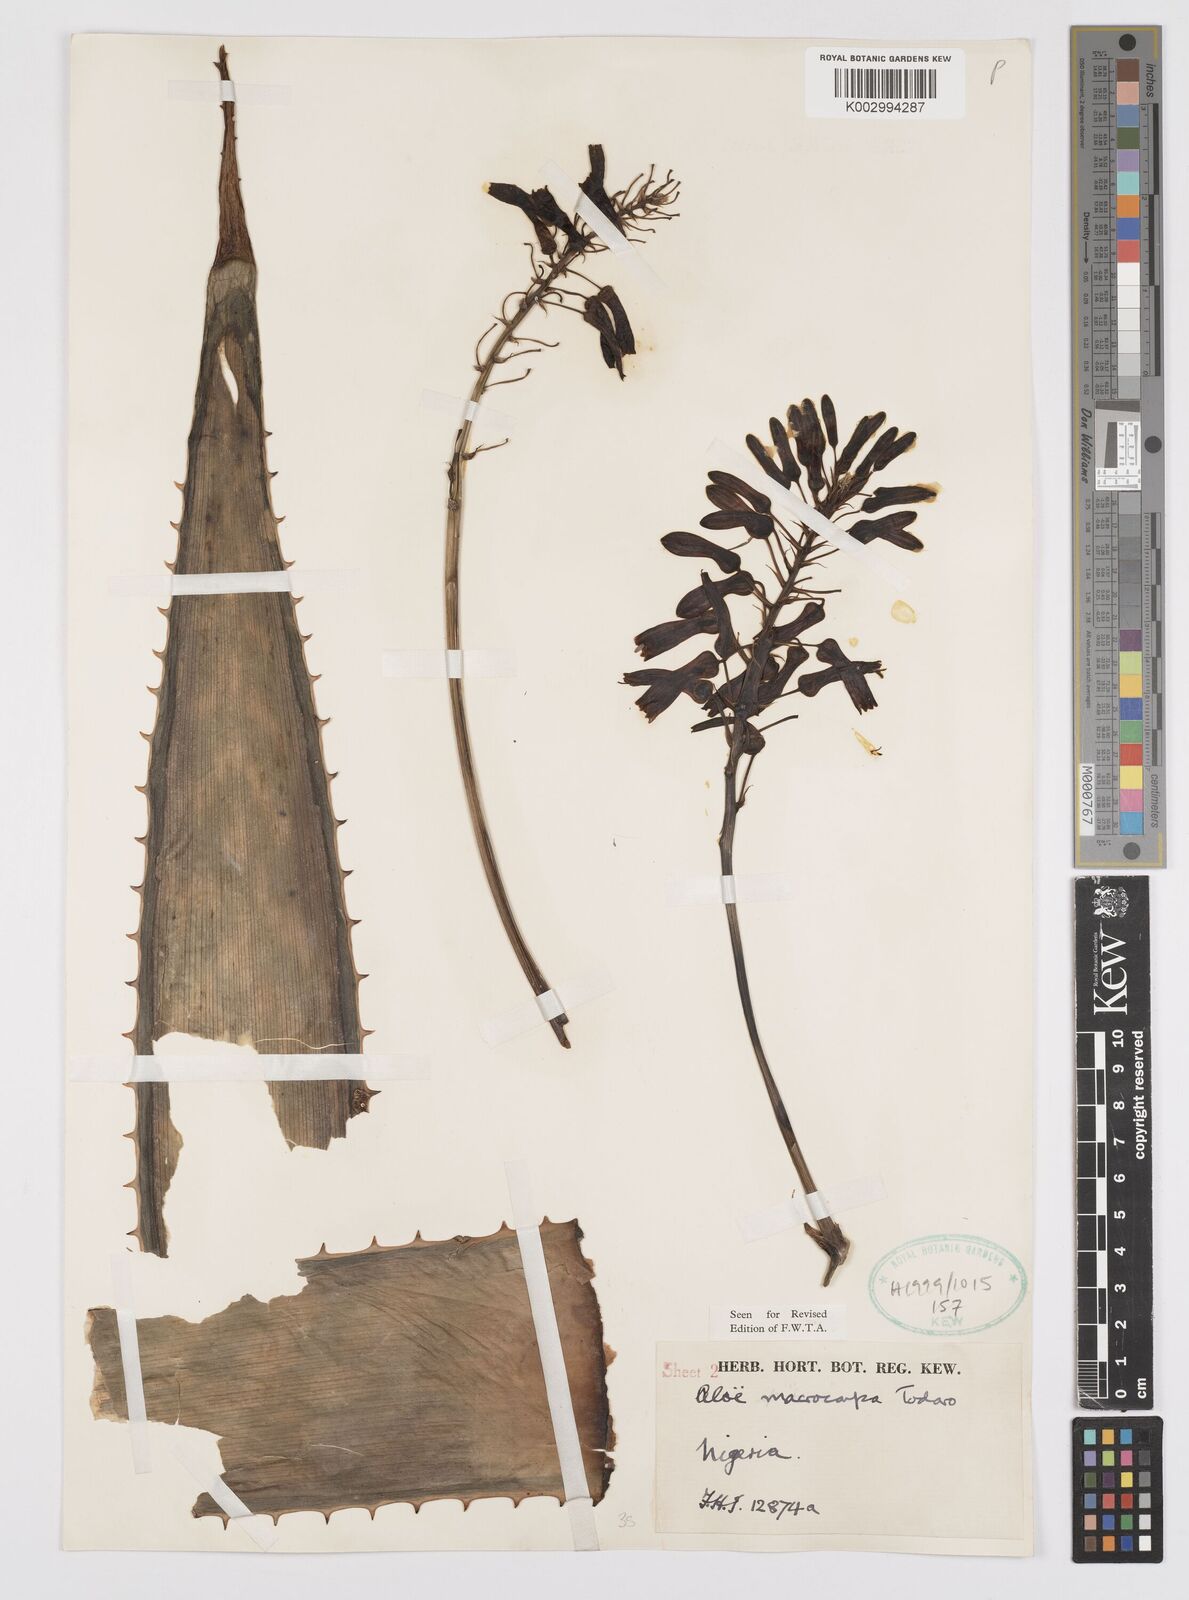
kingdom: Plantae
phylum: Tracheophyta
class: Liliopsida
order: Asparagales
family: Asphodelaceae
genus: Aloe
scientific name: Aloe macrocarpa
